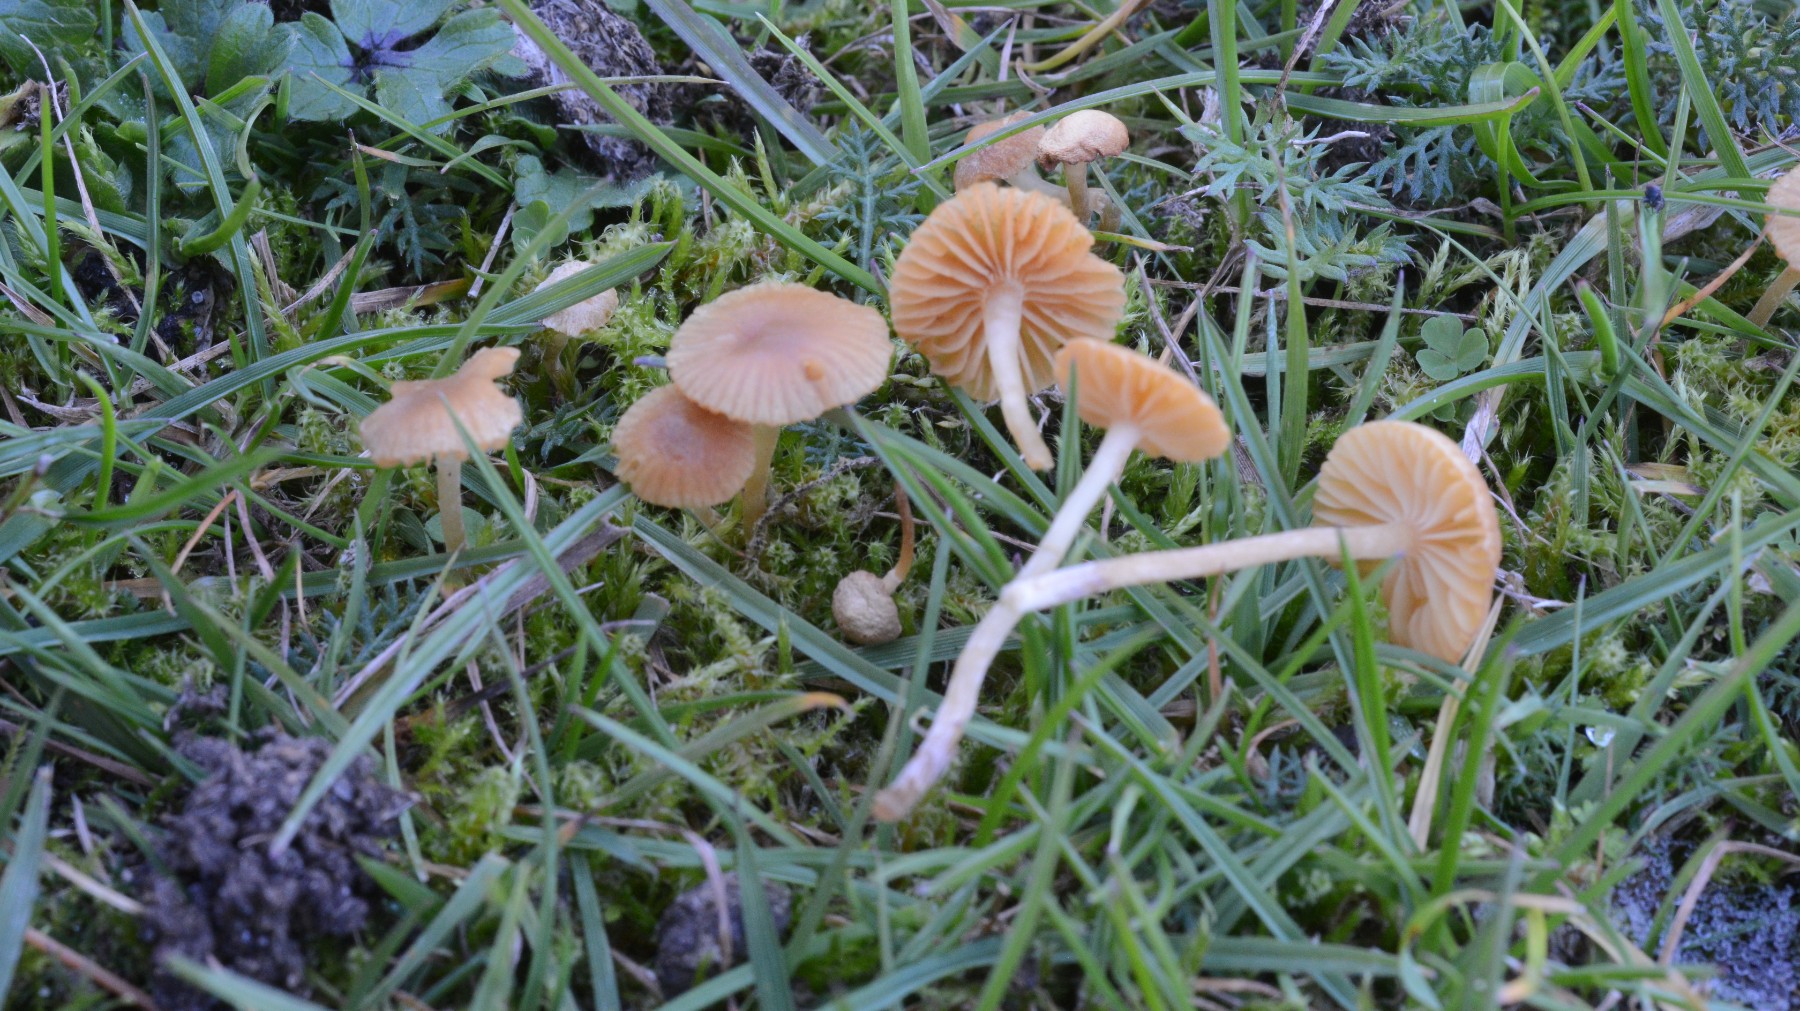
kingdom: Fungi
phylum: Basidiomycota
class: Agaricomycetes
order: Agaricales
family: Hymenogastraceae
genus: Galerina
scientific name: Galerina graminea
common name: plæne-hjelmhat
